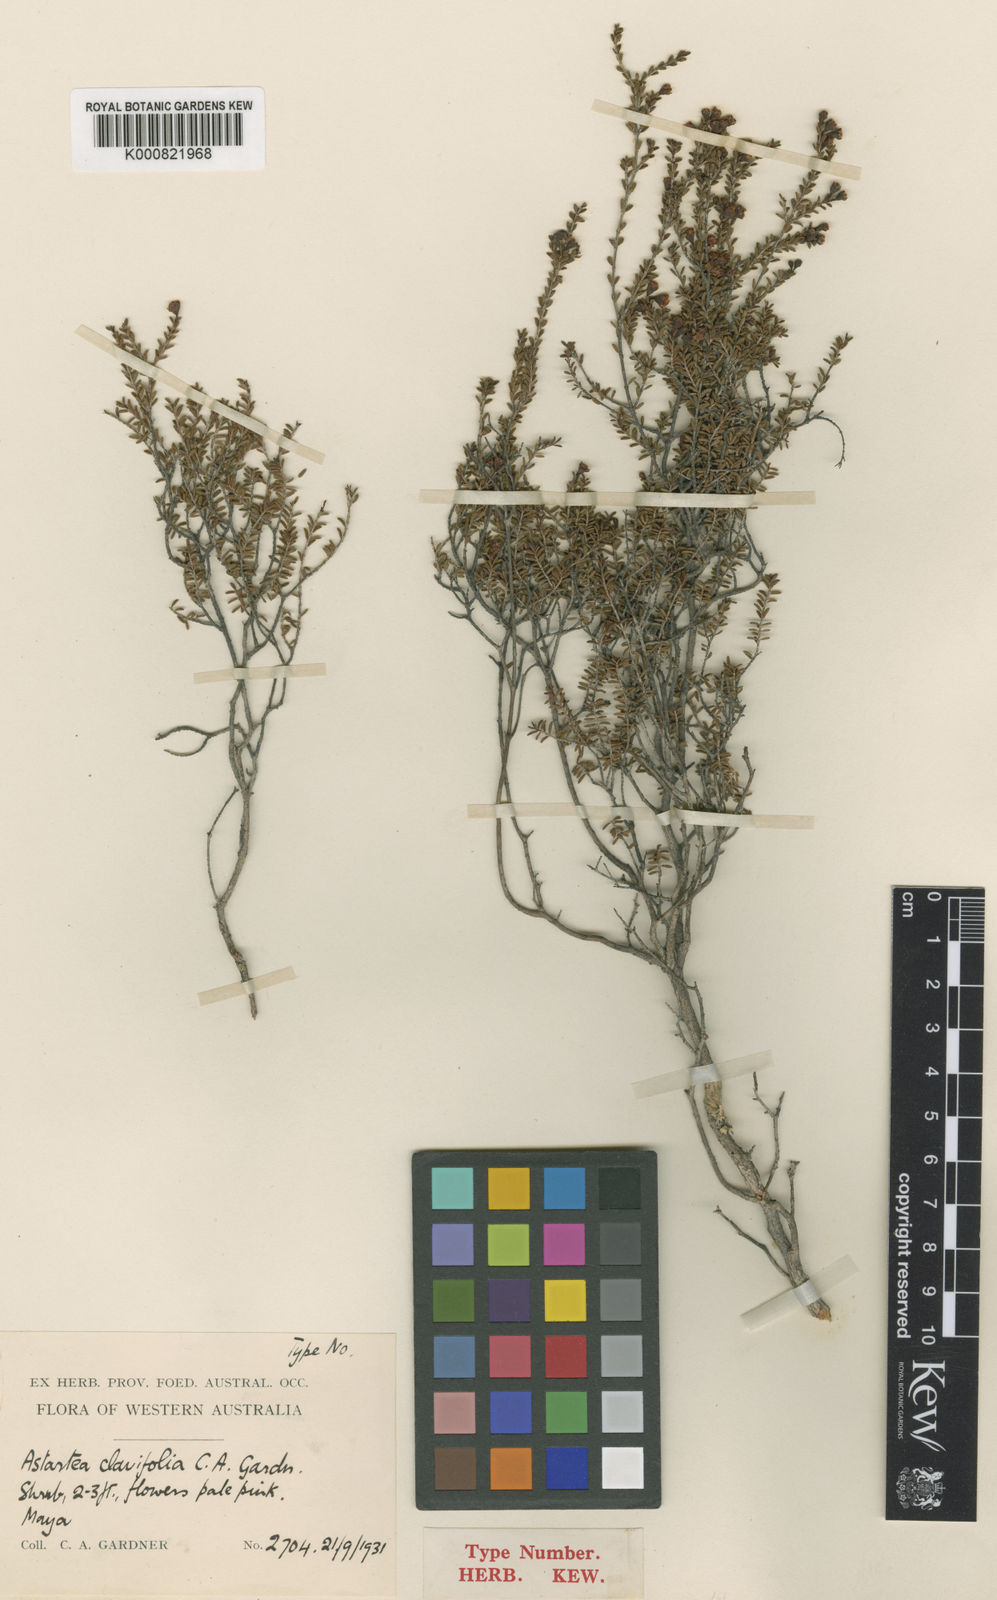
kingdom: Plantae
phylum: Tracheophyta
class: Magnoliopsida
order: Myrtales
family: Myrtaceae
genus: Seorsus
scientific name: Seorsus clavifolius
